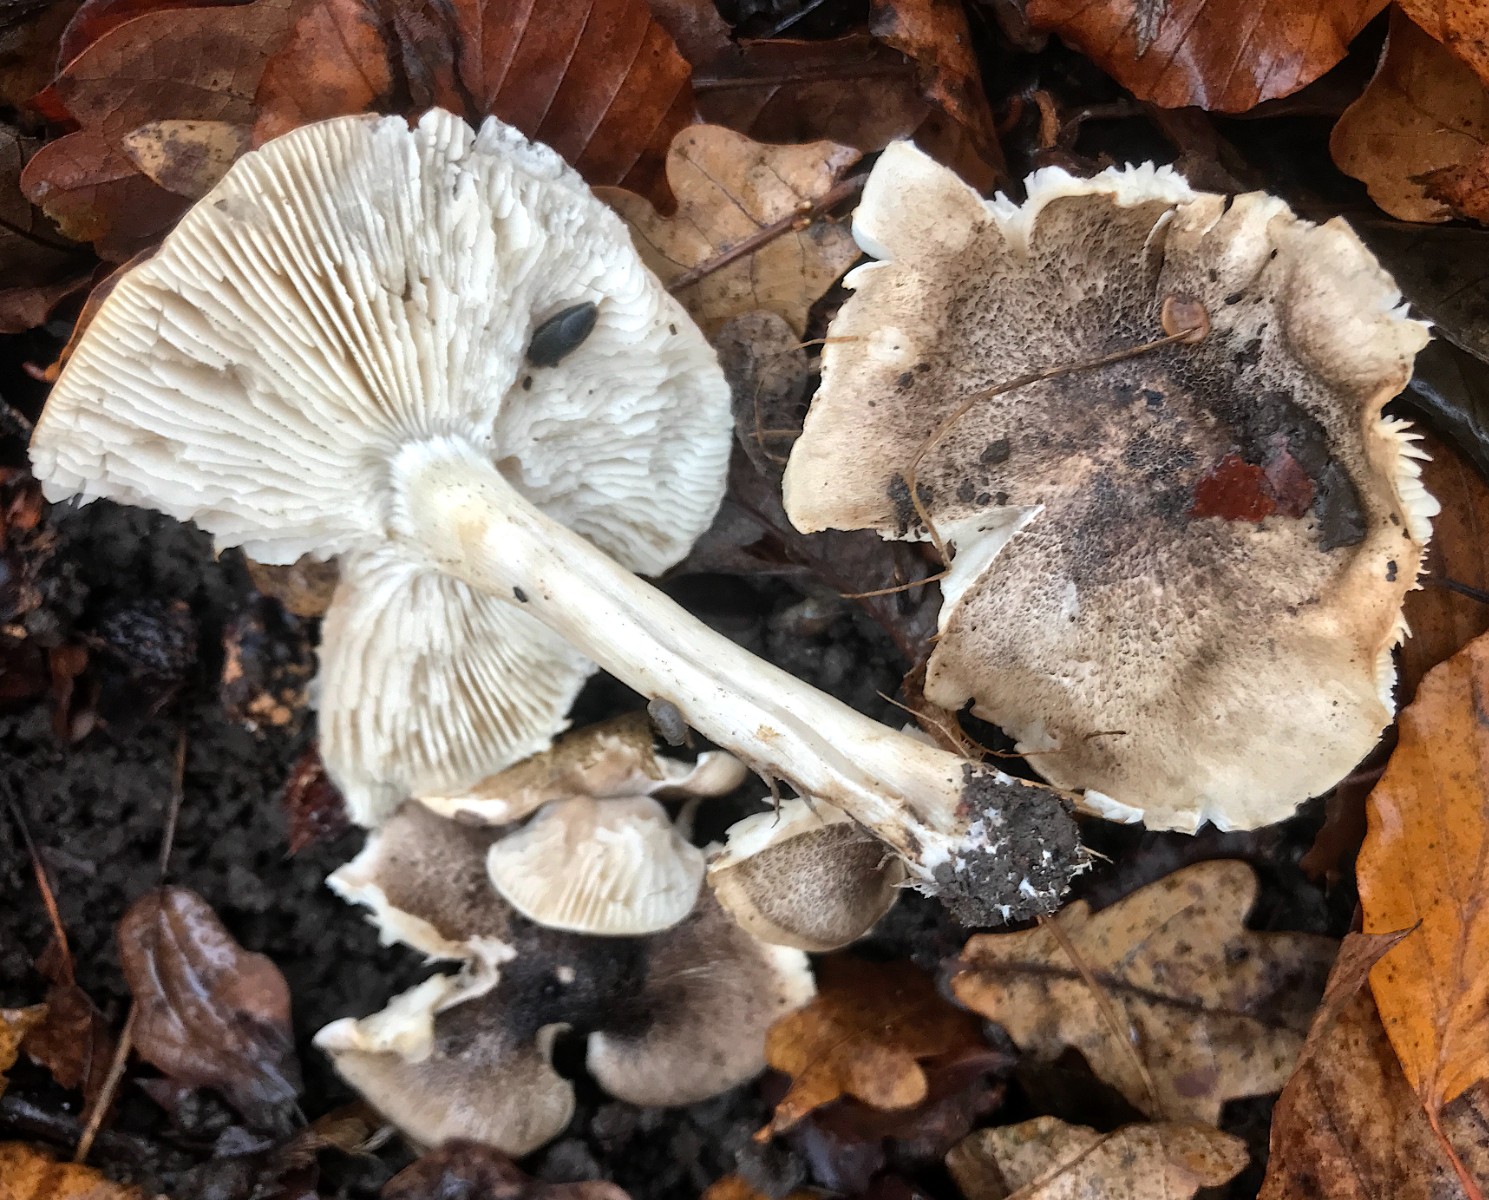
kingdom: Fungi
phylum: Basidiomycota
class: Agaricomycetes
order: Agaricales
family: Tricholomataceae
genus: Tricholoma
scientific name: Tricholoma scalpturatum
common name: gulplettet ridderhat
